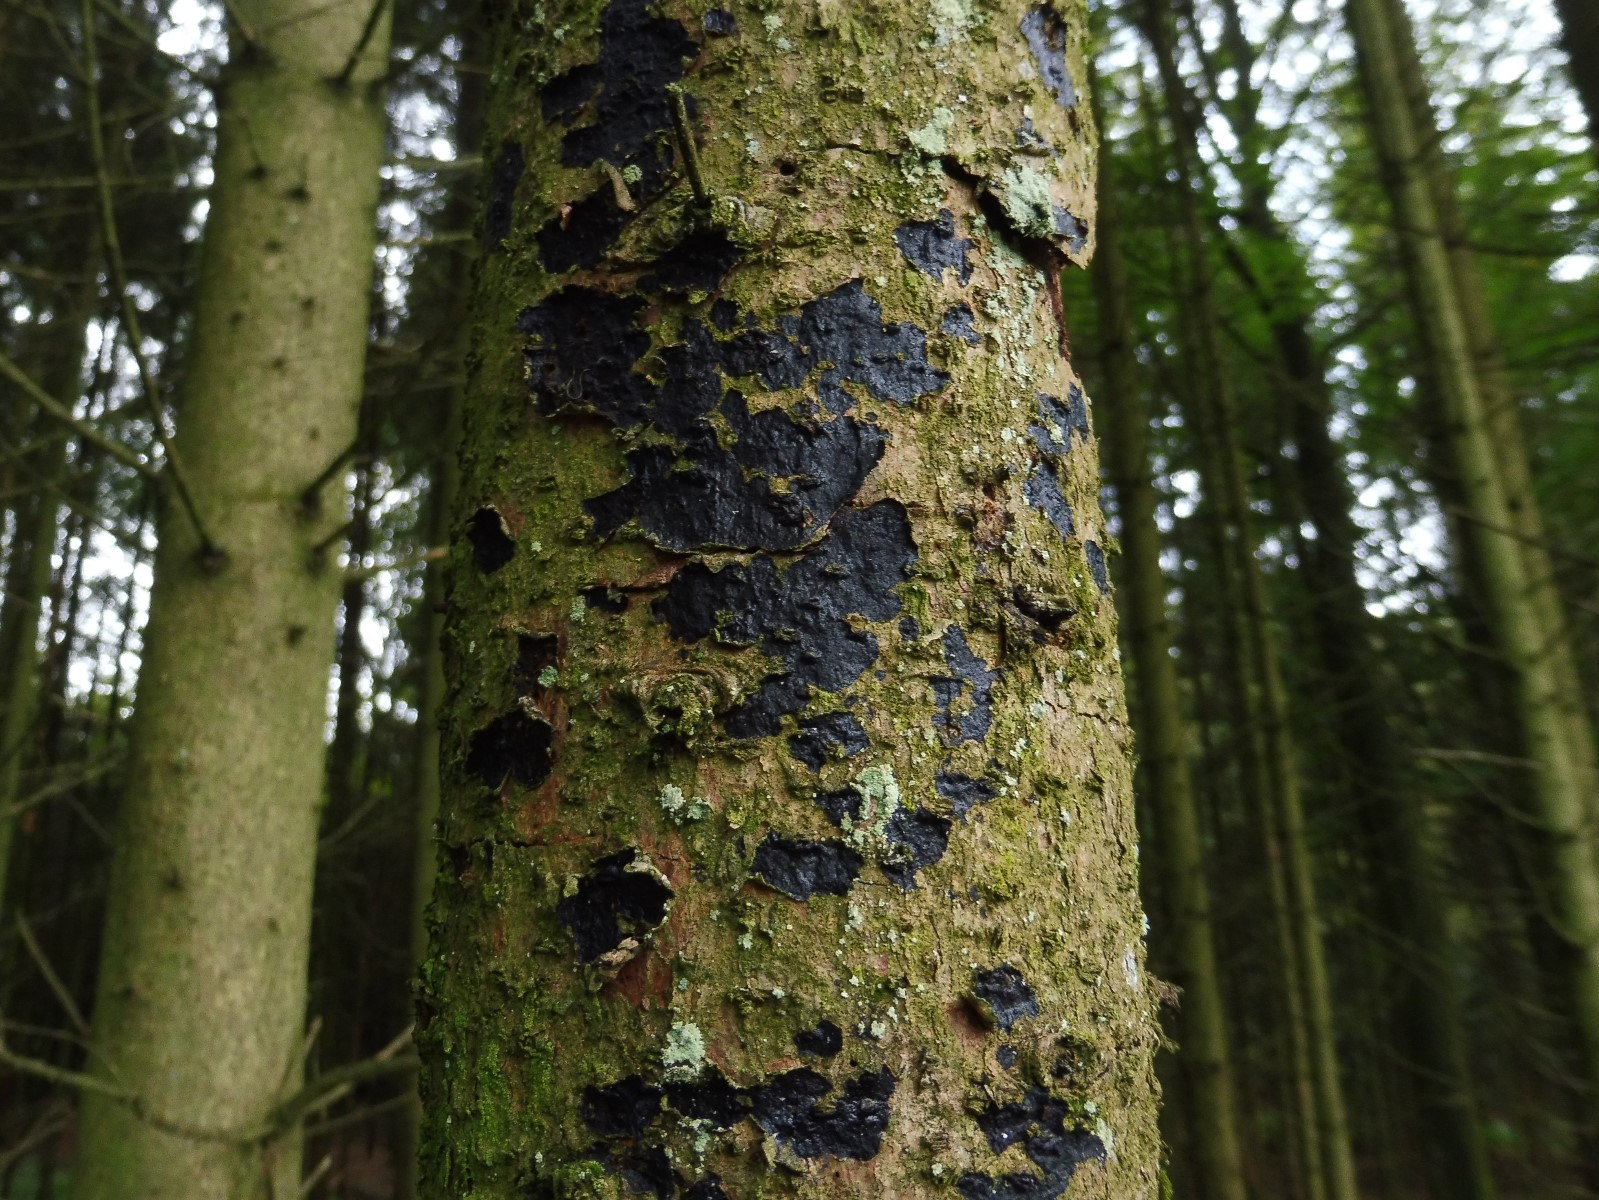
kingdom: Fungi
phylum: Basidiomycota
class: Agaricomycetes
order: Auriculariales
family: Auriculariaceae
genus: Exidia
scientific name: Exidia pithya
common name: gran-bævretop
